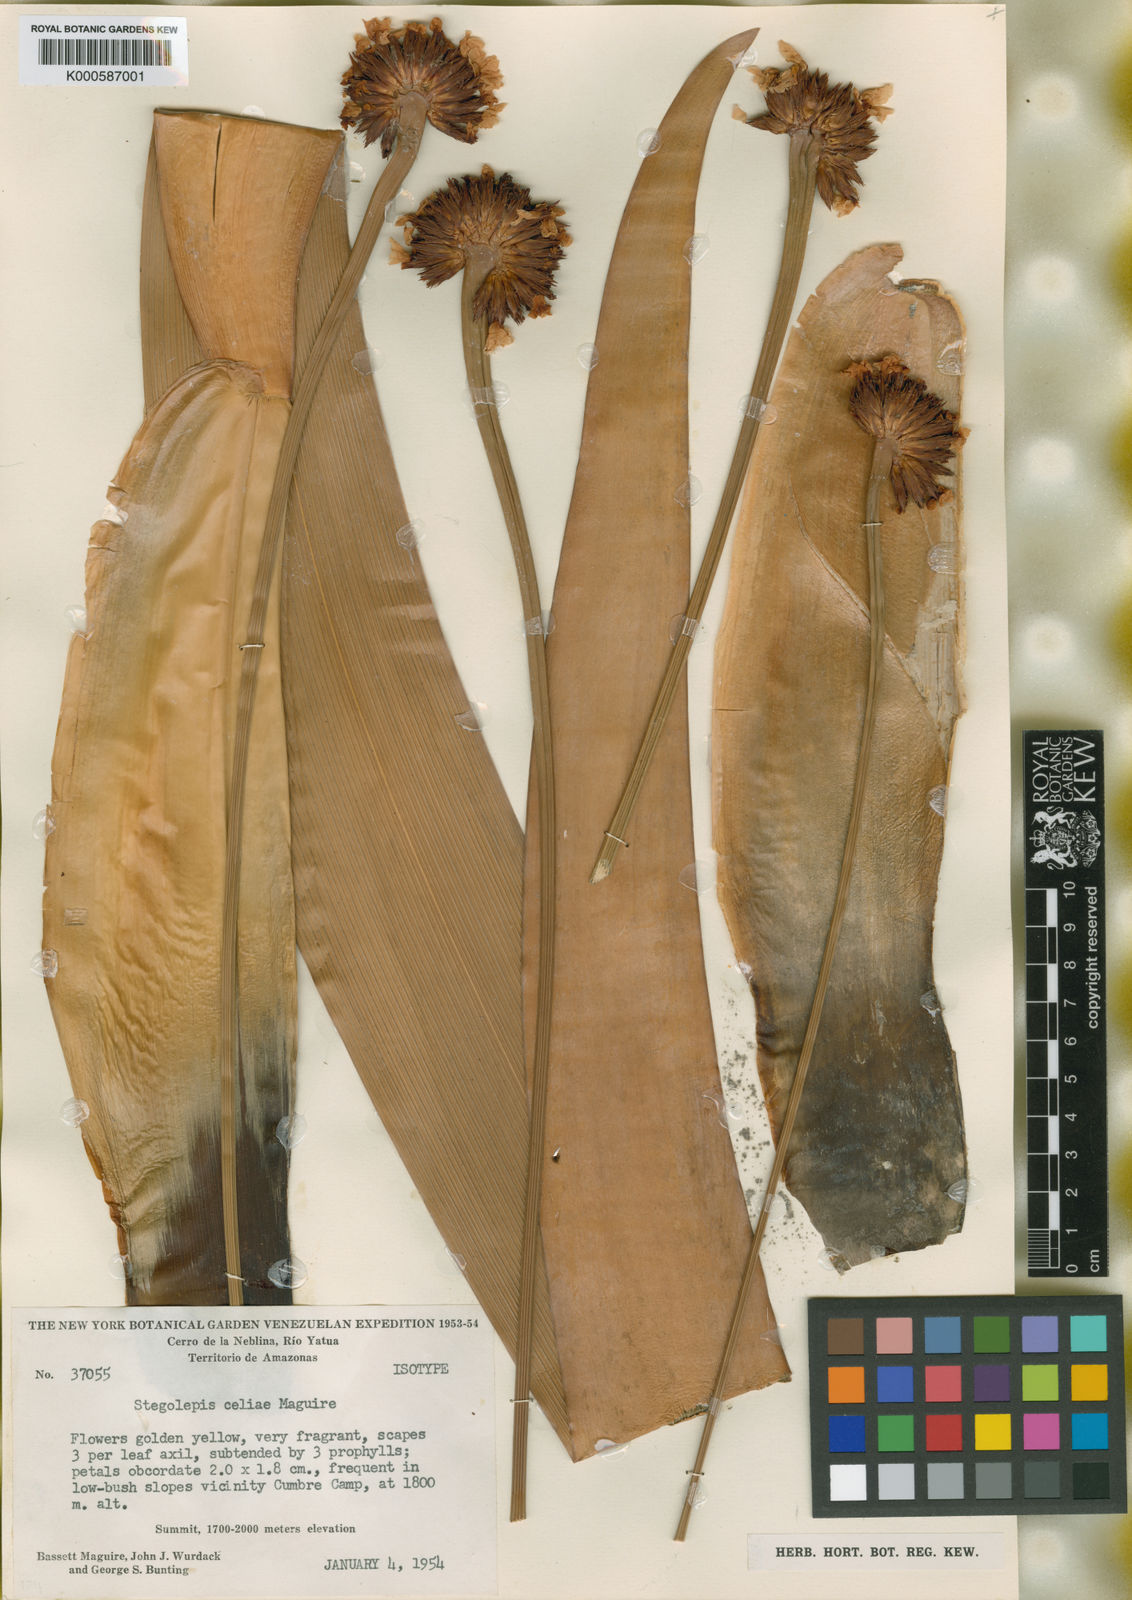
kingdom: Plantae
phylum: Tracheophyta
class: Liliopsida
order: Poales
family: Rapateaceae
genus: Stegolepis
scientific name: Stegolepis celiae
